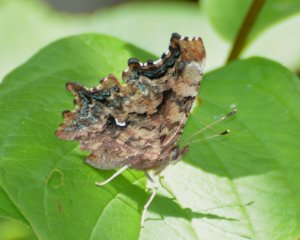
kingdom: Animalia
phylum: Arthropoda
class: Insecta
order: Lepidoptera
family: Nymphalidae
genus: Polygonia
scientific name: Polygonia faunus
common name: Green Comma
